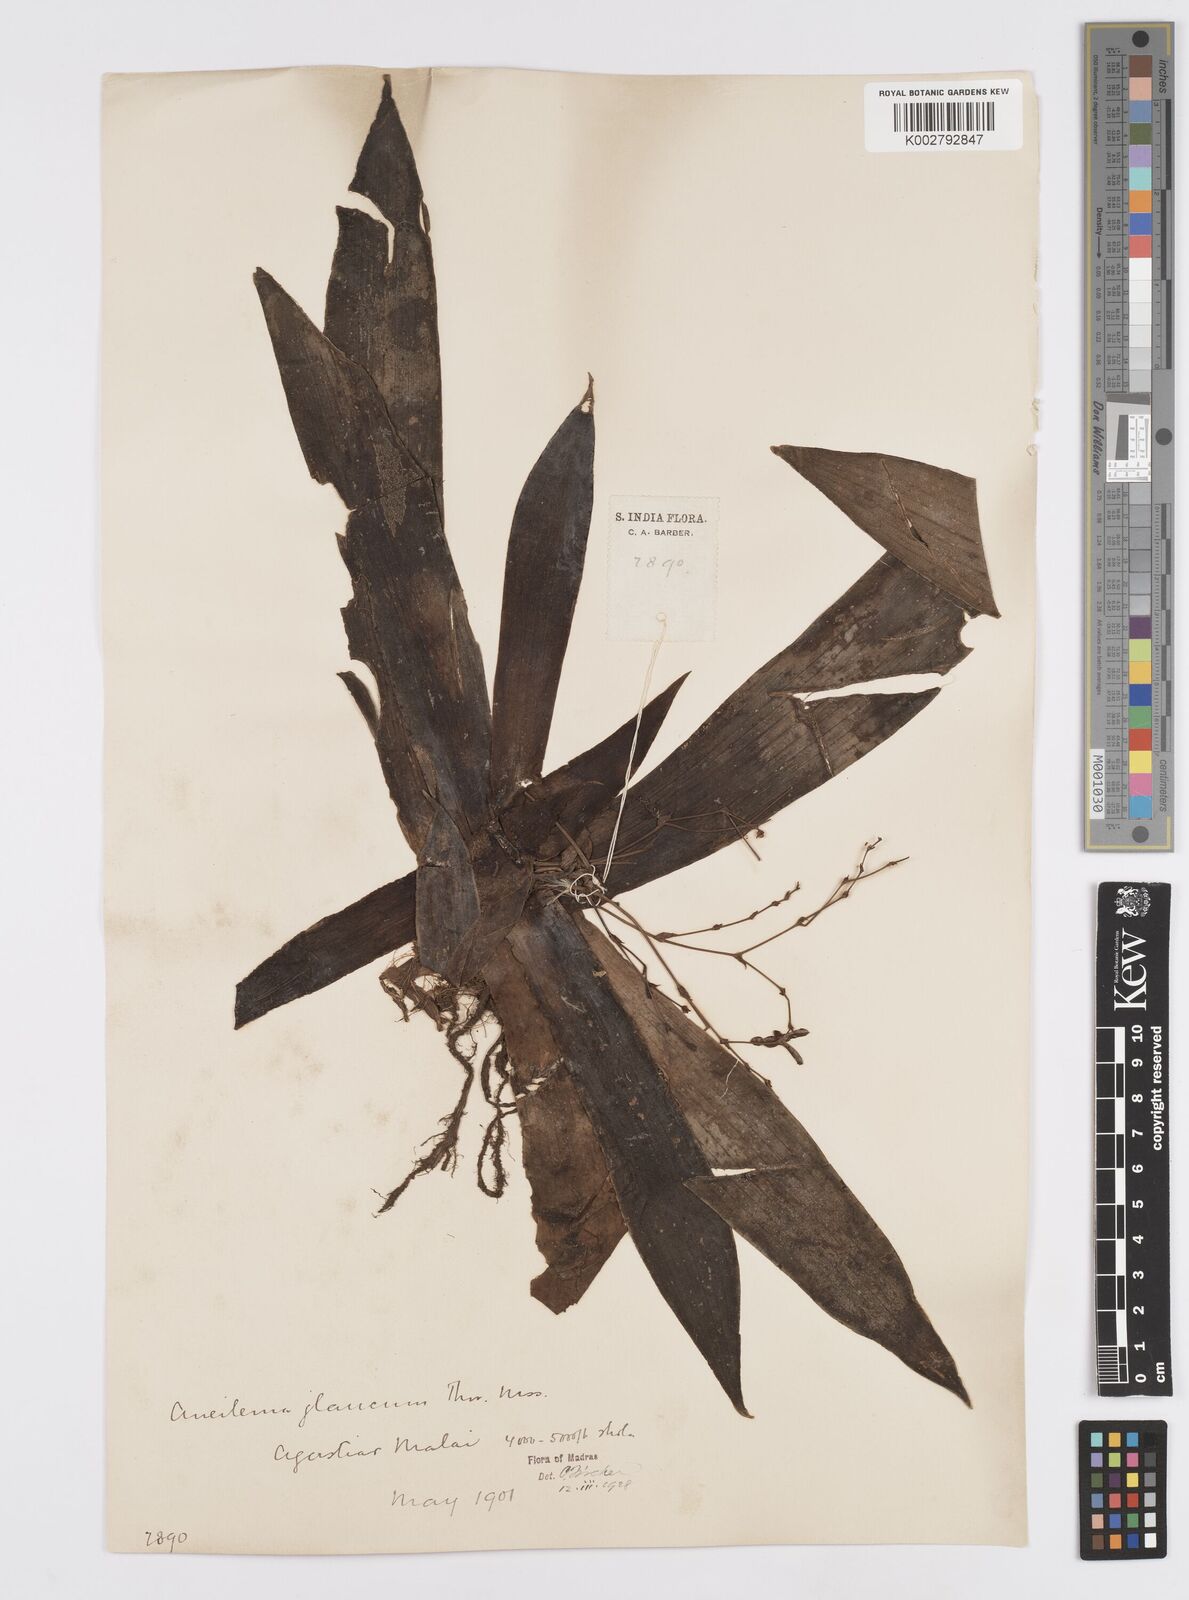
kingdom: Plantae
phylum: Tracheophyta
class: Liliopsida
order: Commelinales
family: Commelinaceae
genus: Murdannia
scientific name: Murdannia glauca
